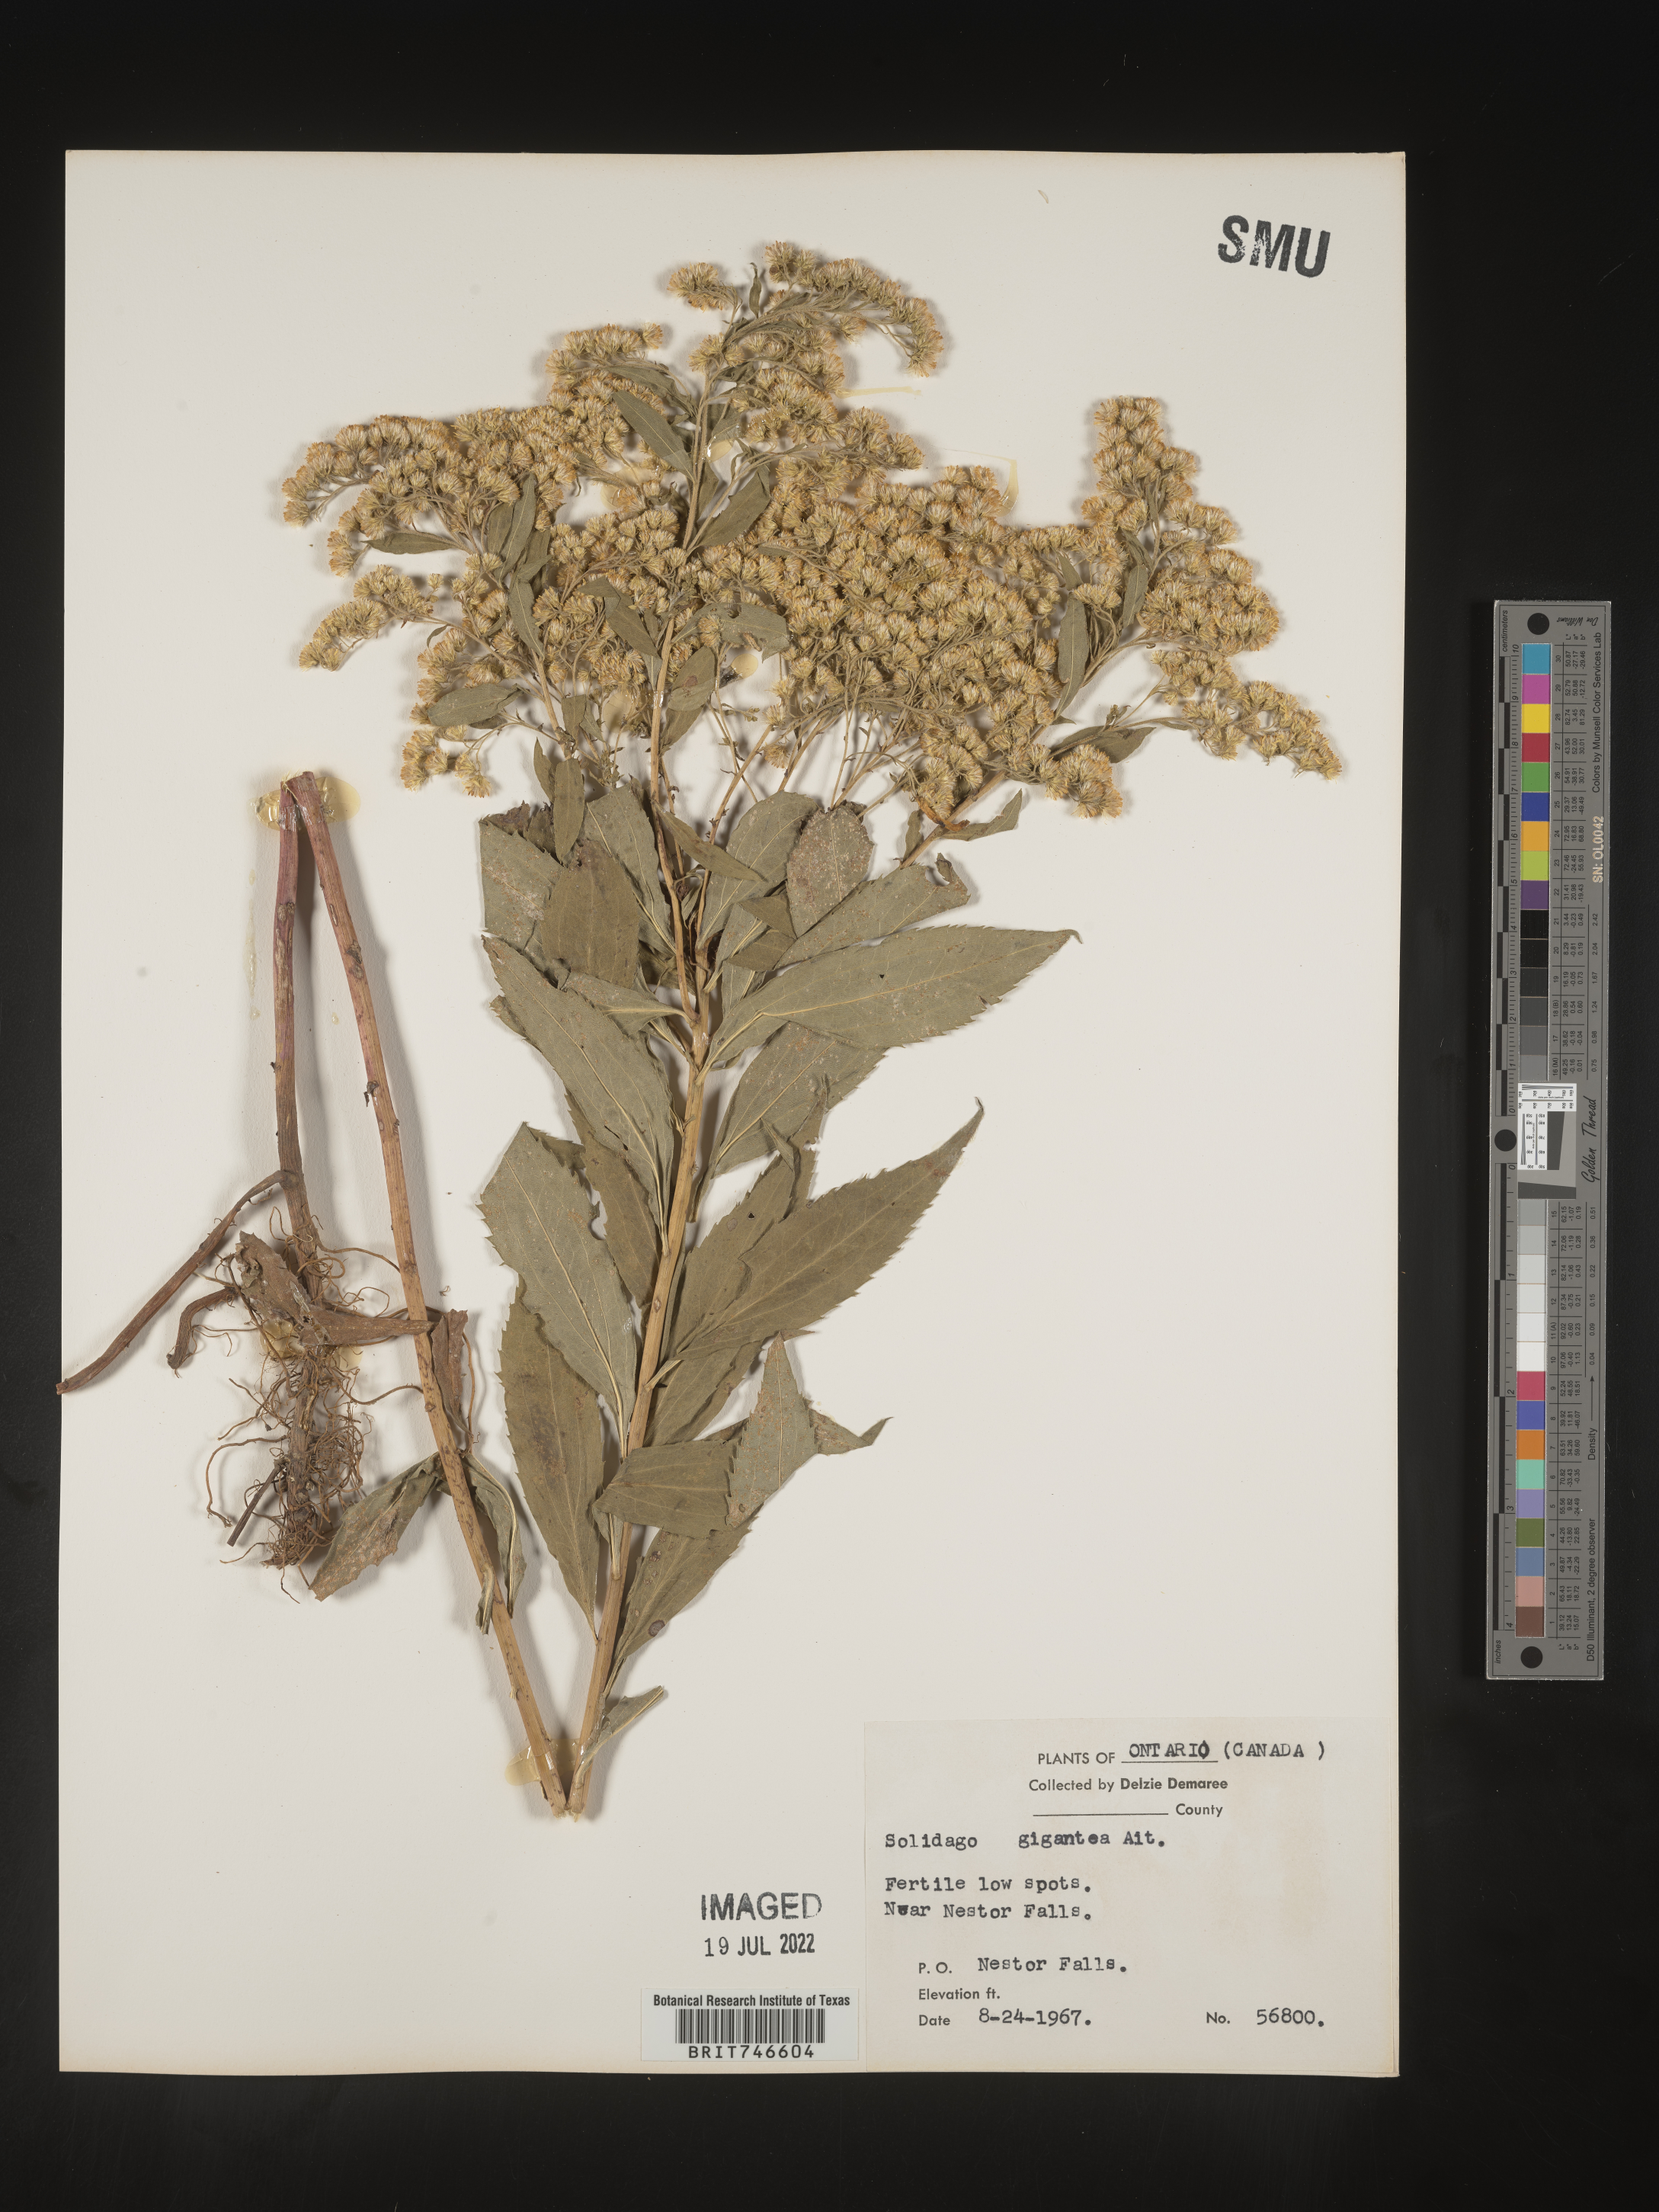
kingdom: Plantae
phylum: Tracheophyta
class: Magnoliopsida
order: Asterales
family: Asteraceae
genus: Solidago
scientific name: Solidago gigantea
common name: Giant goldenrod
